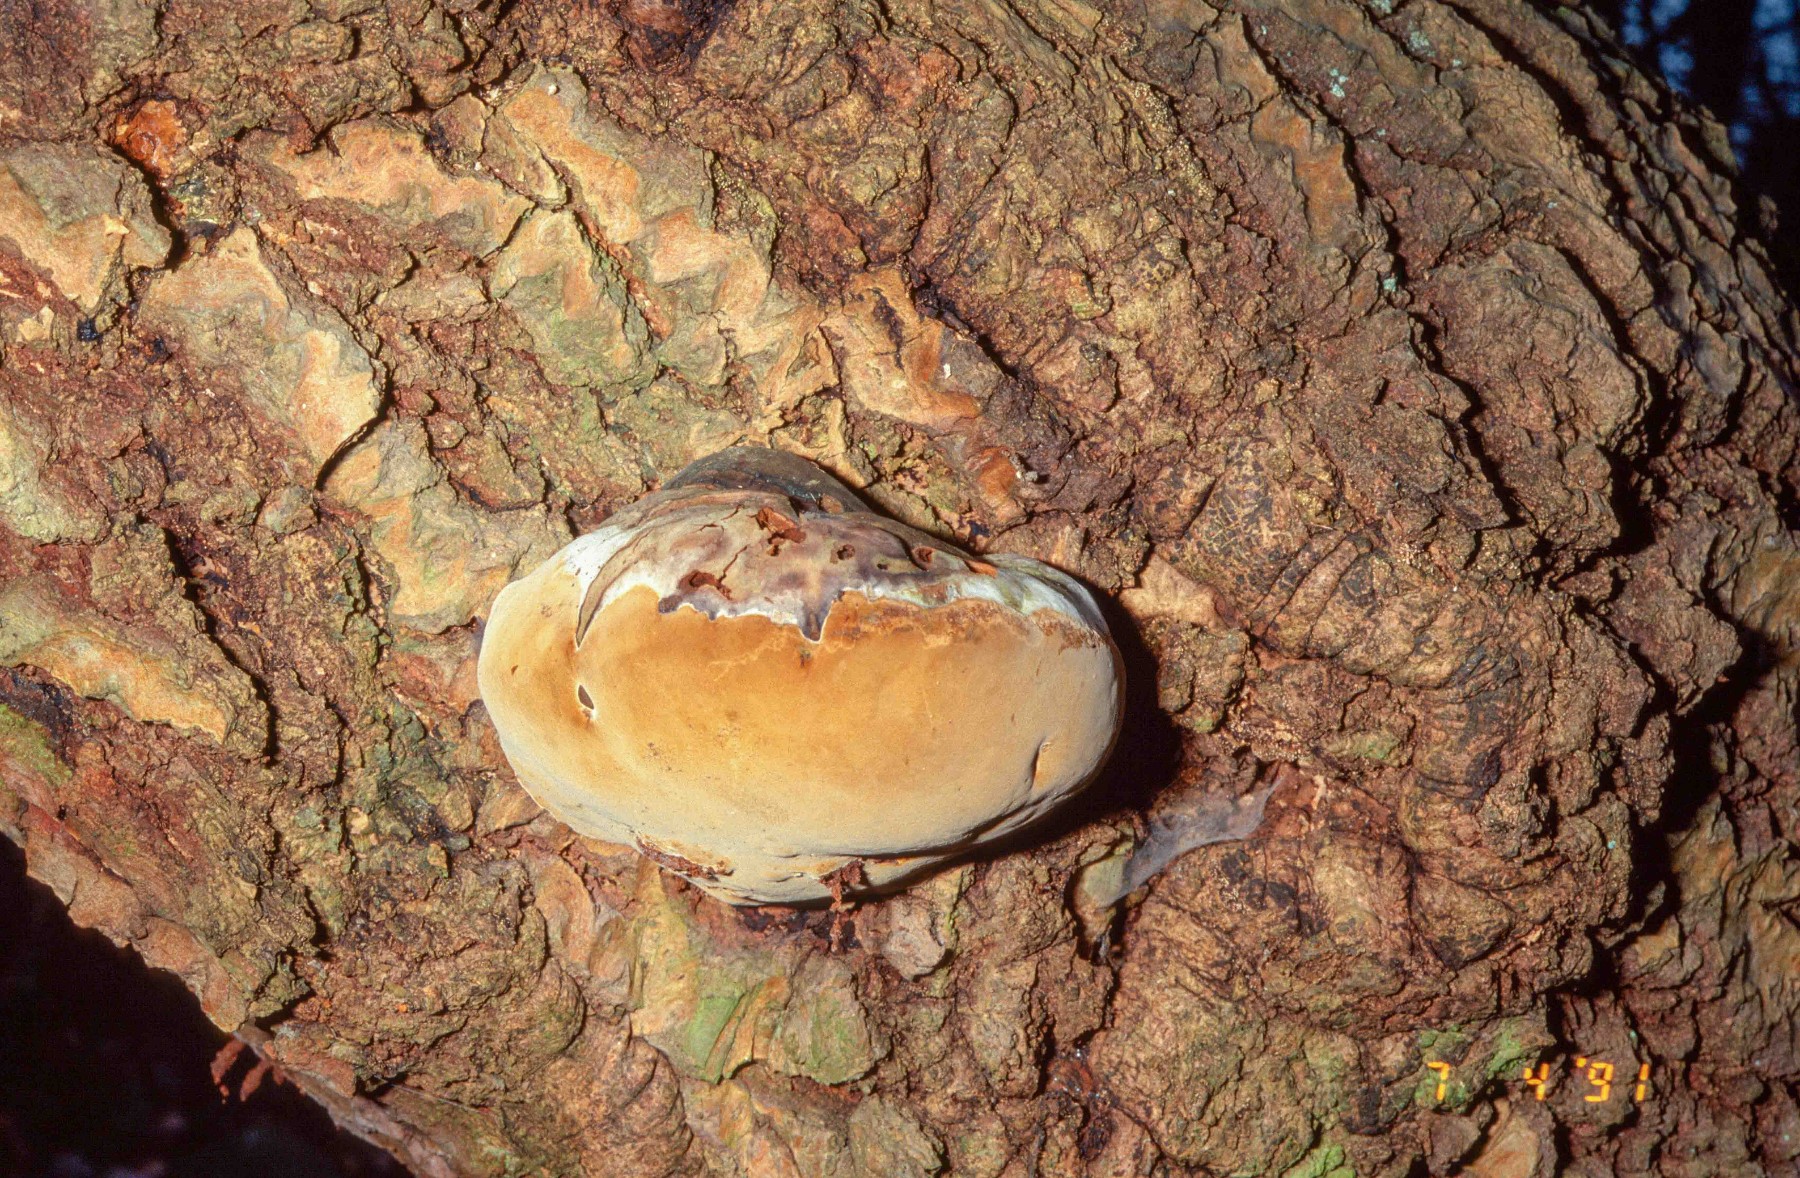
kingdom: Fungi
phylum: Basidiomycota
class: Agaricomycetes
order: Hymenochaetales
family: Hymenochaetaceae
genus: Phellinus
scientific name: Phellinus populicola
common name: poppel-ildporesvamp
